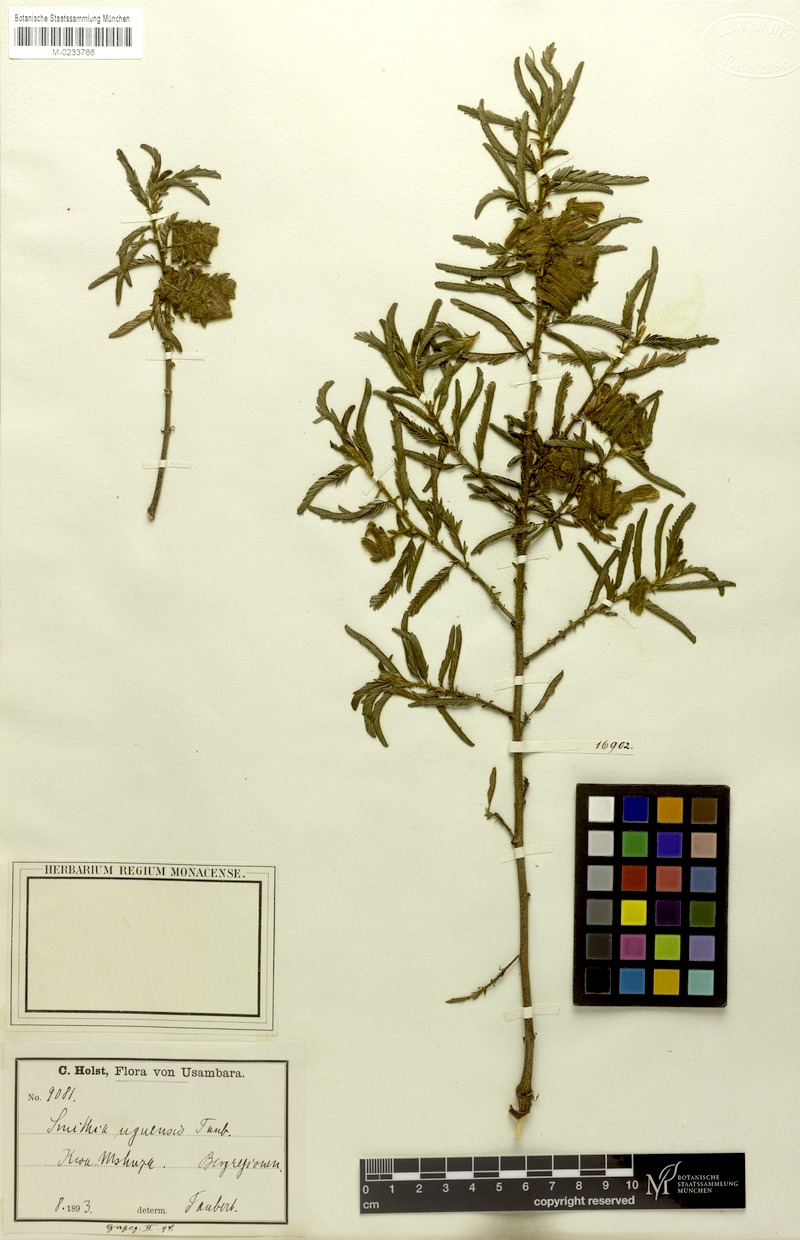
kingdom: Plantae
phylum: Tracheophyta
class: Magnoliopsida
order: Fabales
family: Fabaceae
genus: Kotschya
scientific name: Kotschya uguenensis
